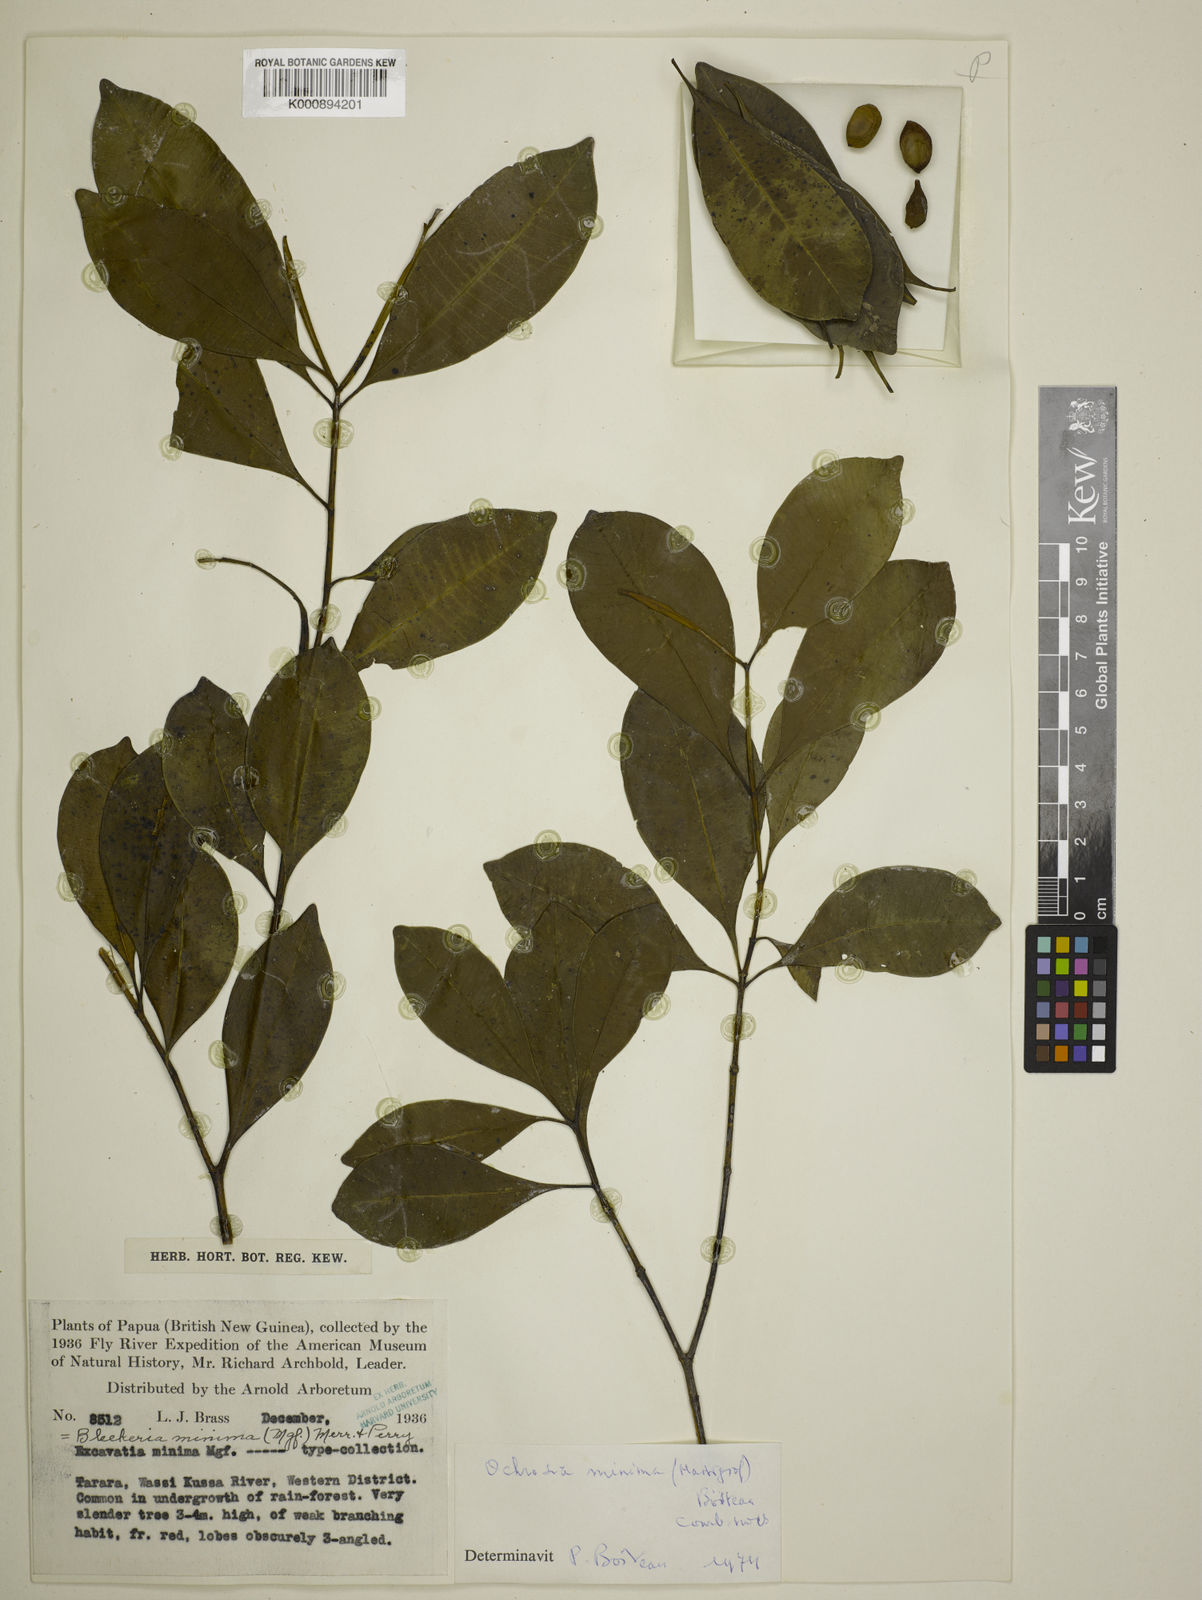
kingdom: Plantae
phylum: Tracheophyta
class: Magnoliopsida
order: Gentianales
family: Apocynaceae
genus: Ochrosia
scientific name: Ochrosia minima
